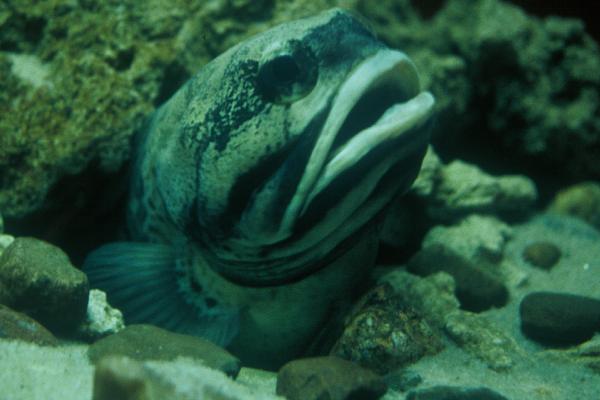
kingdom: Animalia
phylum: Chordata
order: Perciformes
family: Opistognathidae
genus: Opistognathus
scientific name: Opistognathus
